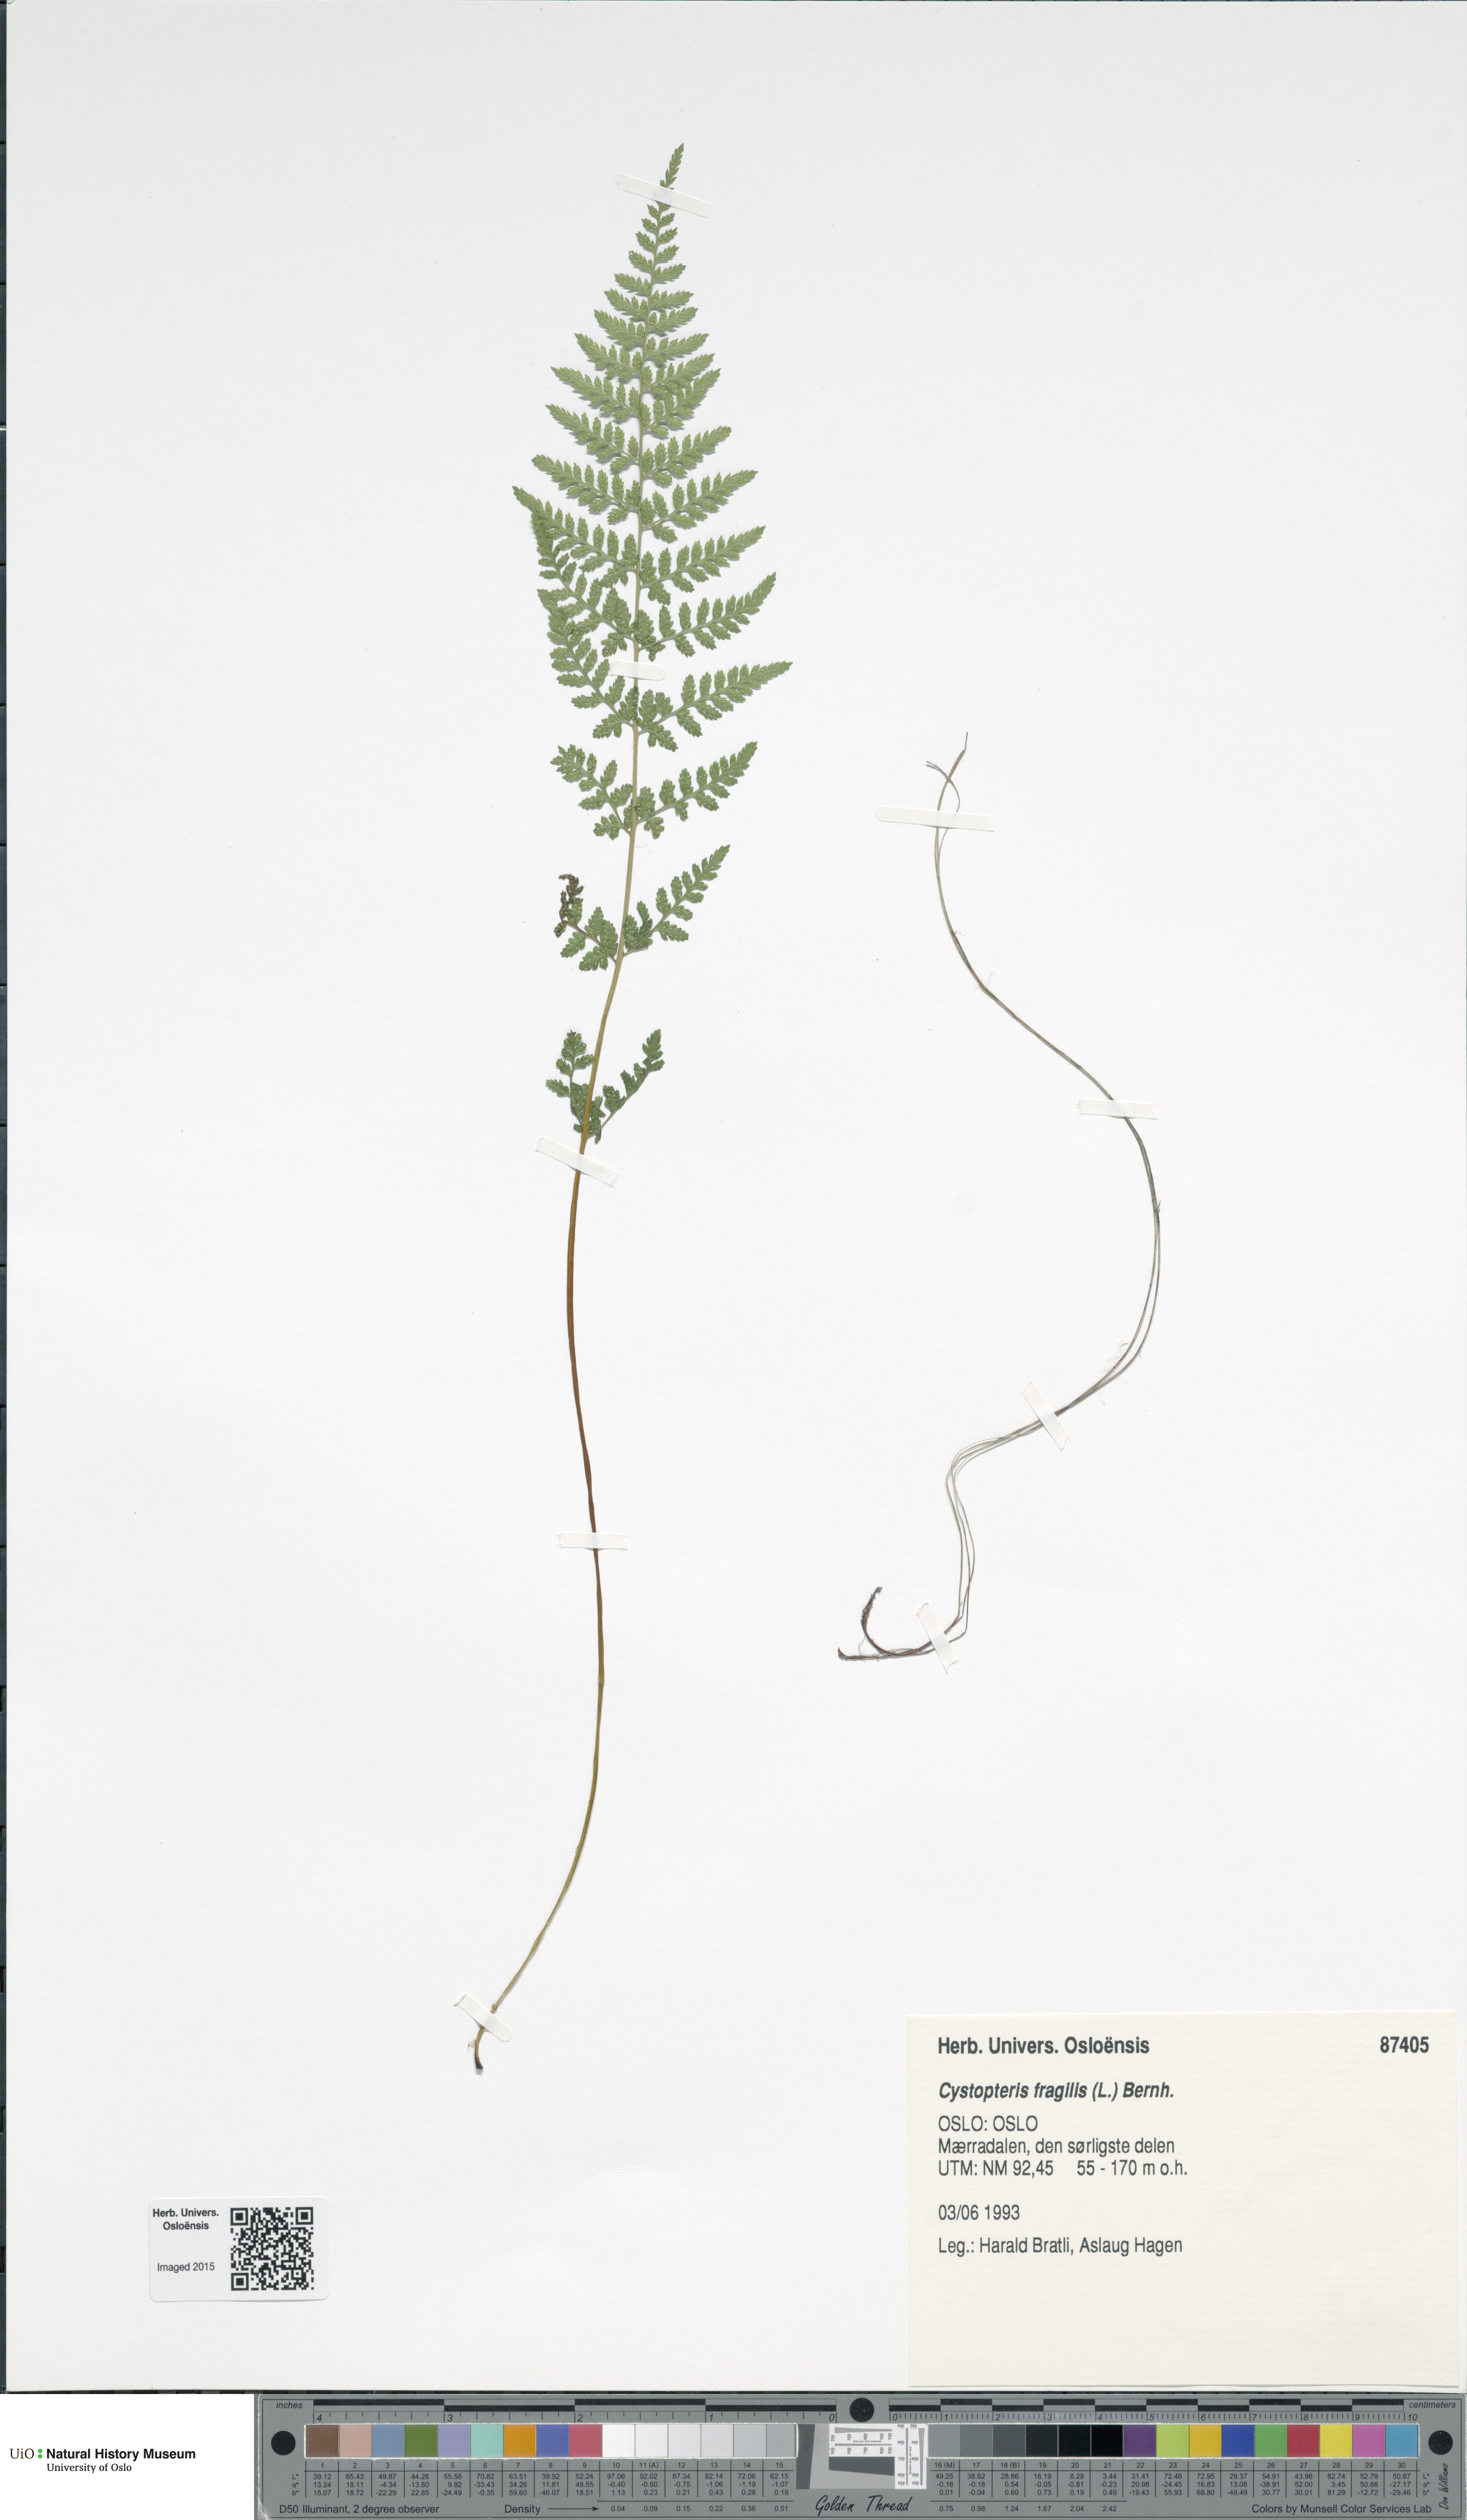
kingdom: Plantae
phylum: Tracheophyta
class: Polypodiopsida
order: Polypodiales
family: Cystopteridaceae
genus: Cystopteris
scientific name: Cystopteris fragilis
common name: Brittle bladder fern
